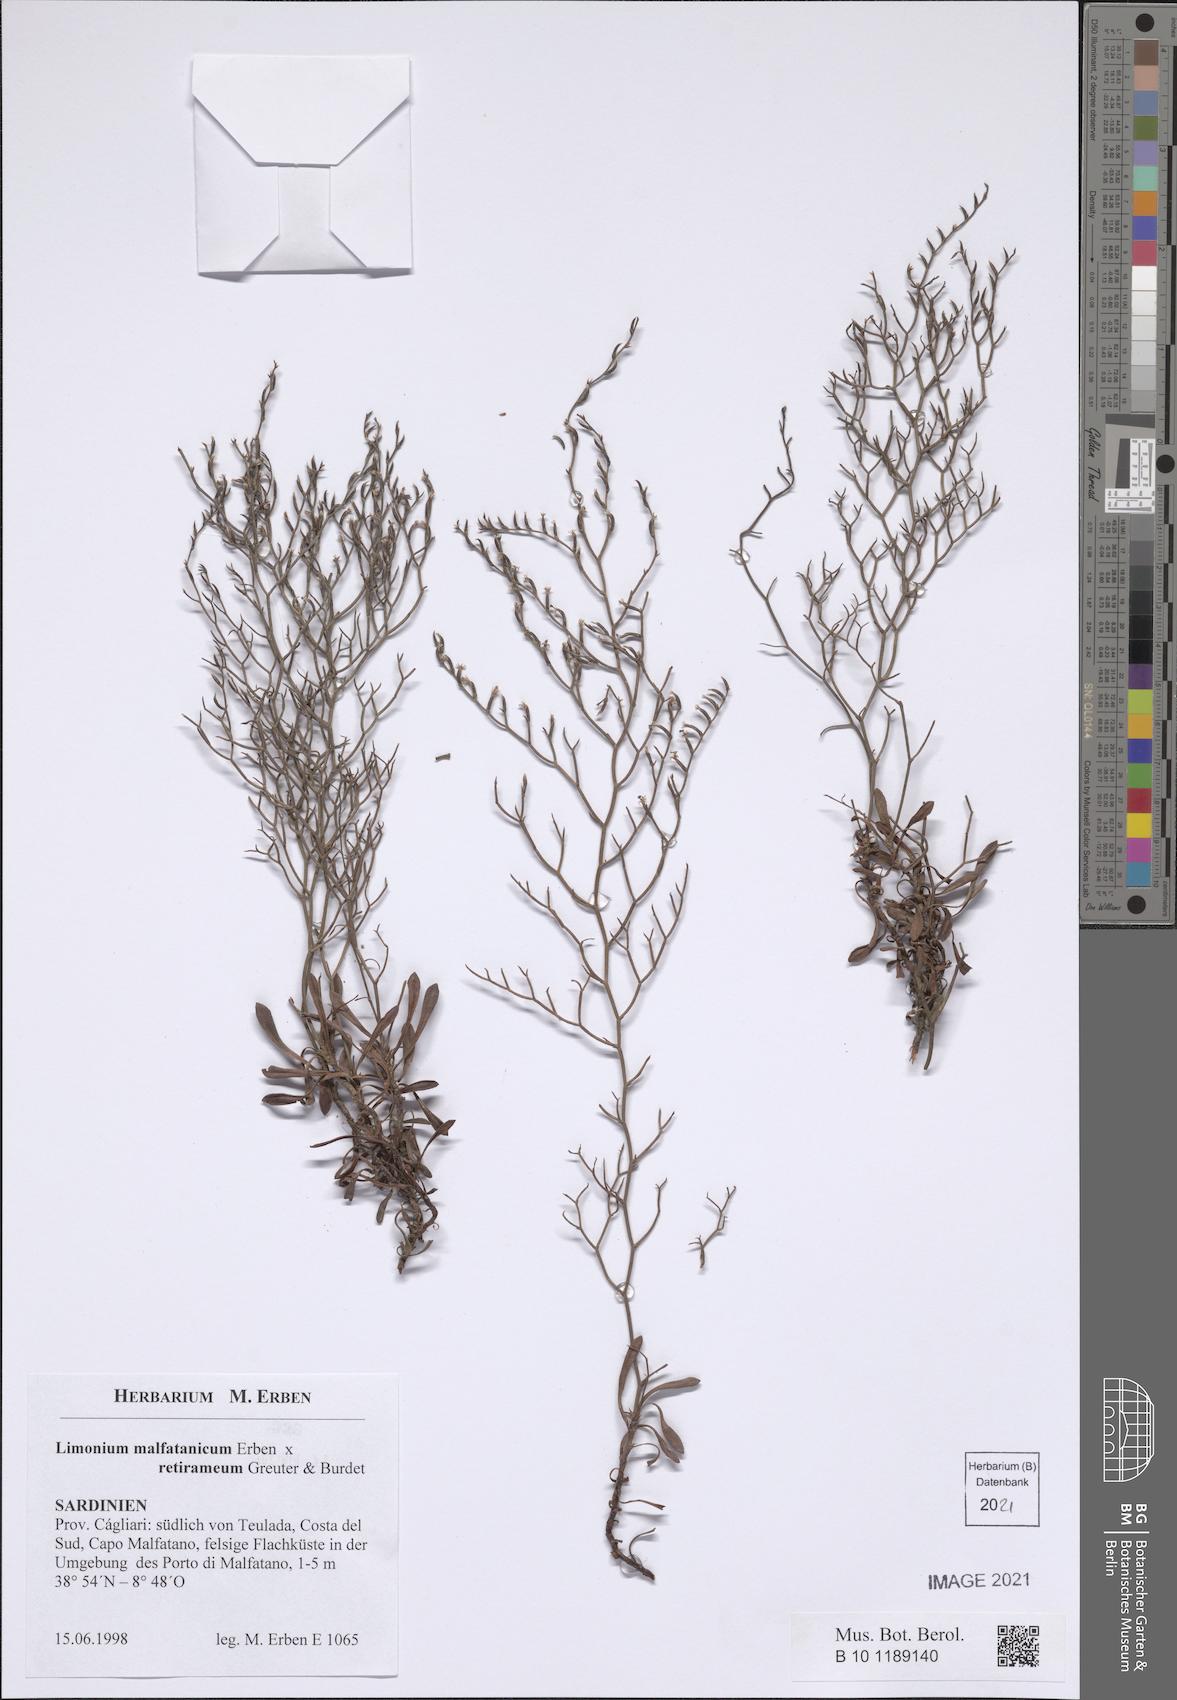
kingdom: Plantae
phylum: Tracheophyta
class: Magnoliopsida
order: Caryophyllales
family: Plumbaginaceae
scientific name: Plumbaginaceae
